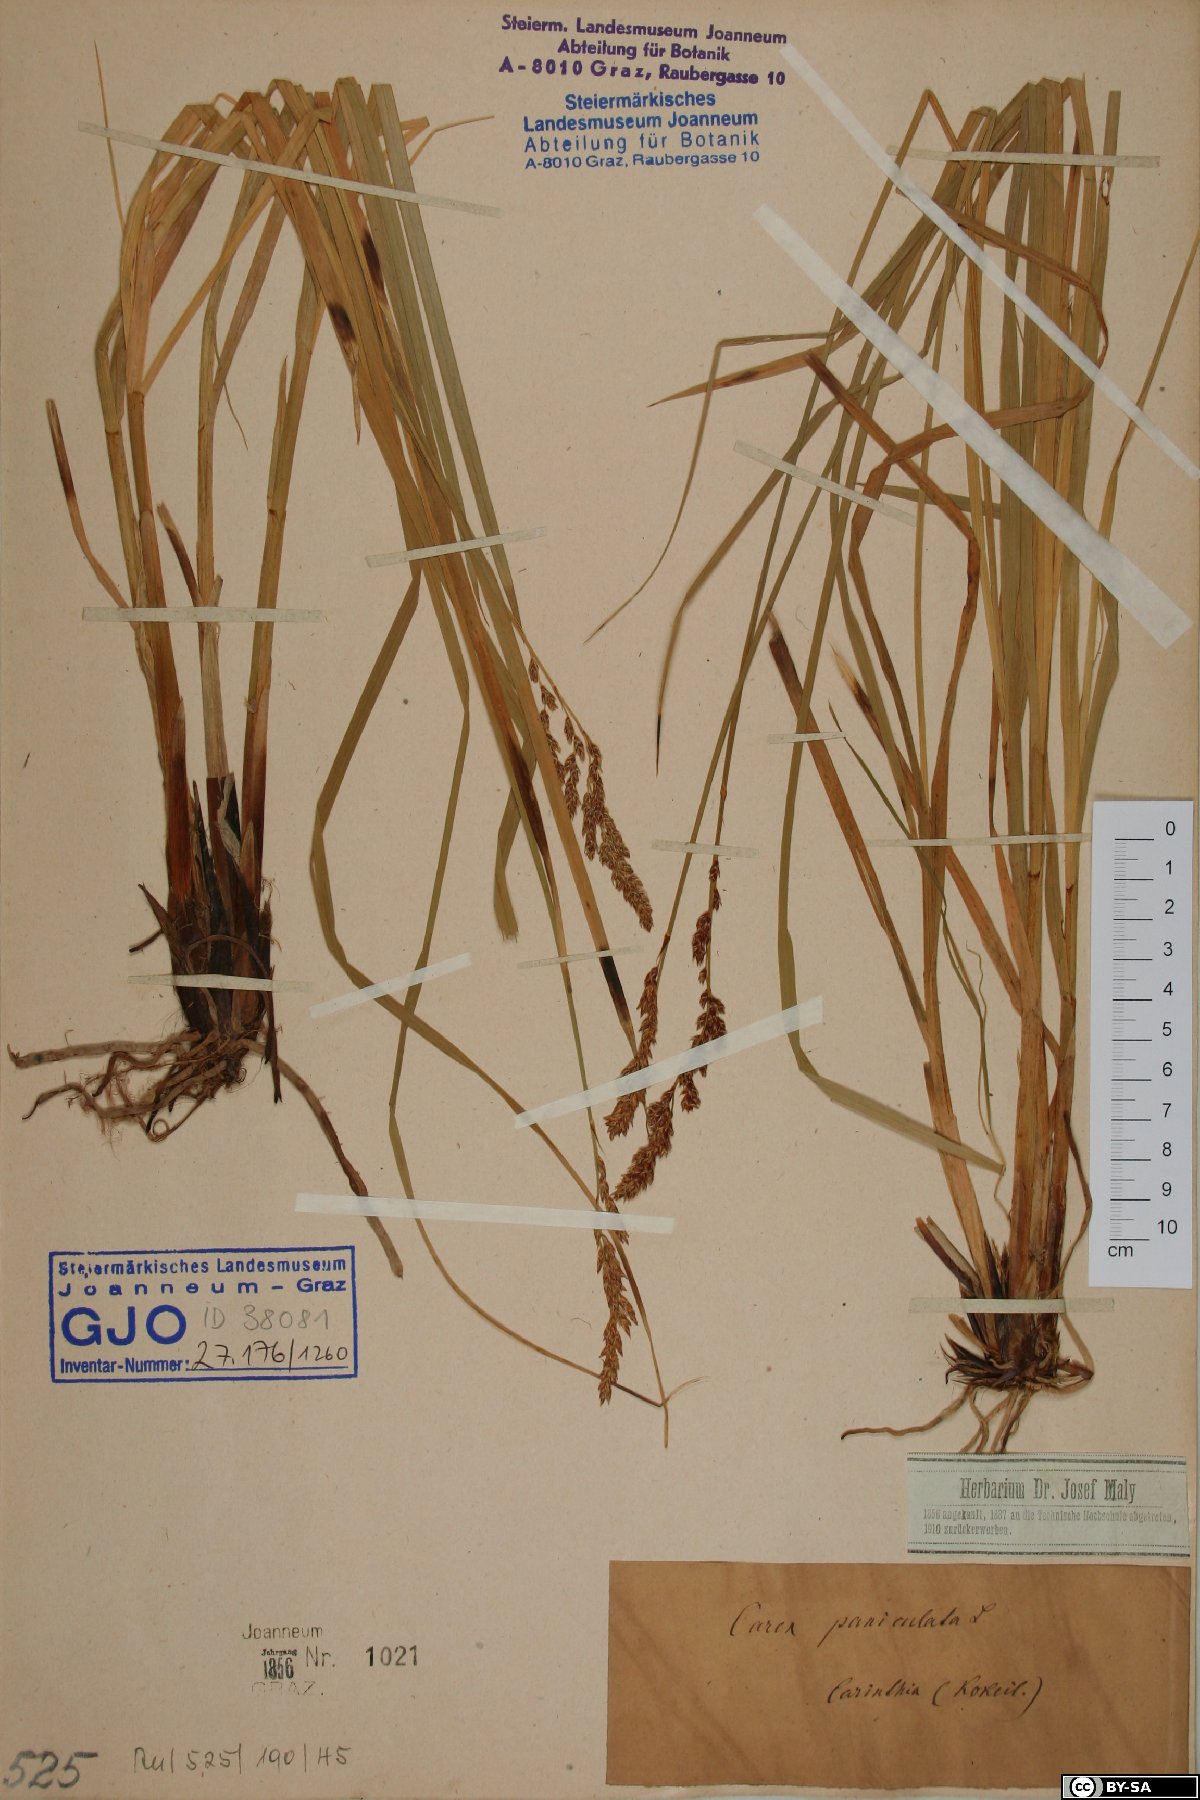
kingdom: Plantae
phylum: Tracheophyta
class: Liliopsida
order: Poales
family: Cyperaceae
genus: Carex
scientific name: Carex paniculata
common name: Greater tussock-sedge
